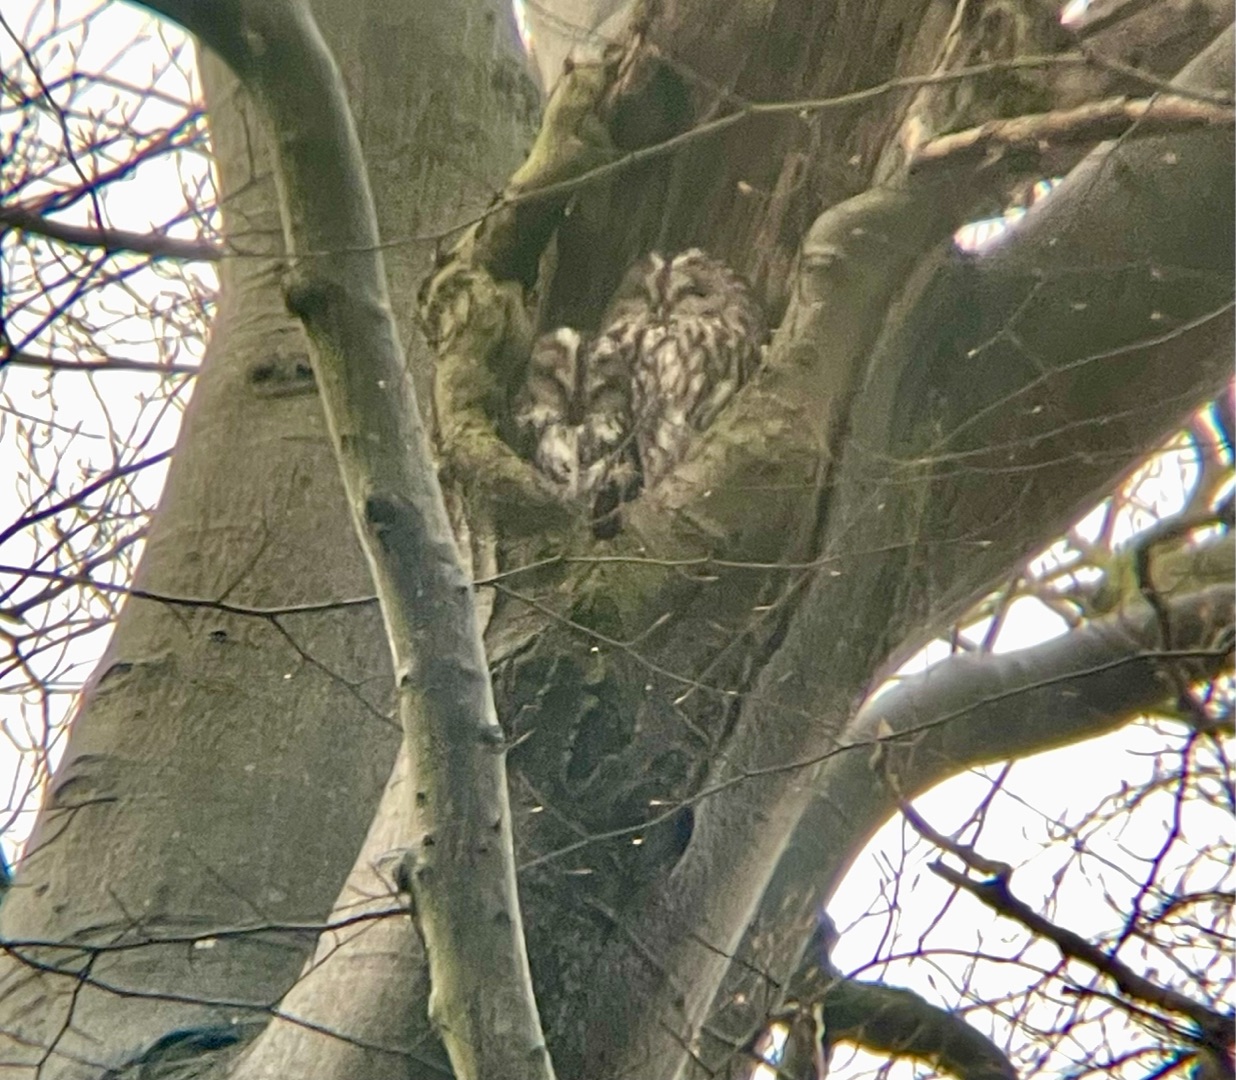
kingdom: Animalia
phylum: Chordata
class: Aves
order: Strigiformes
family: Strigidae
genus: Strix
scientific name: Strix aluco
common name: Natugle
